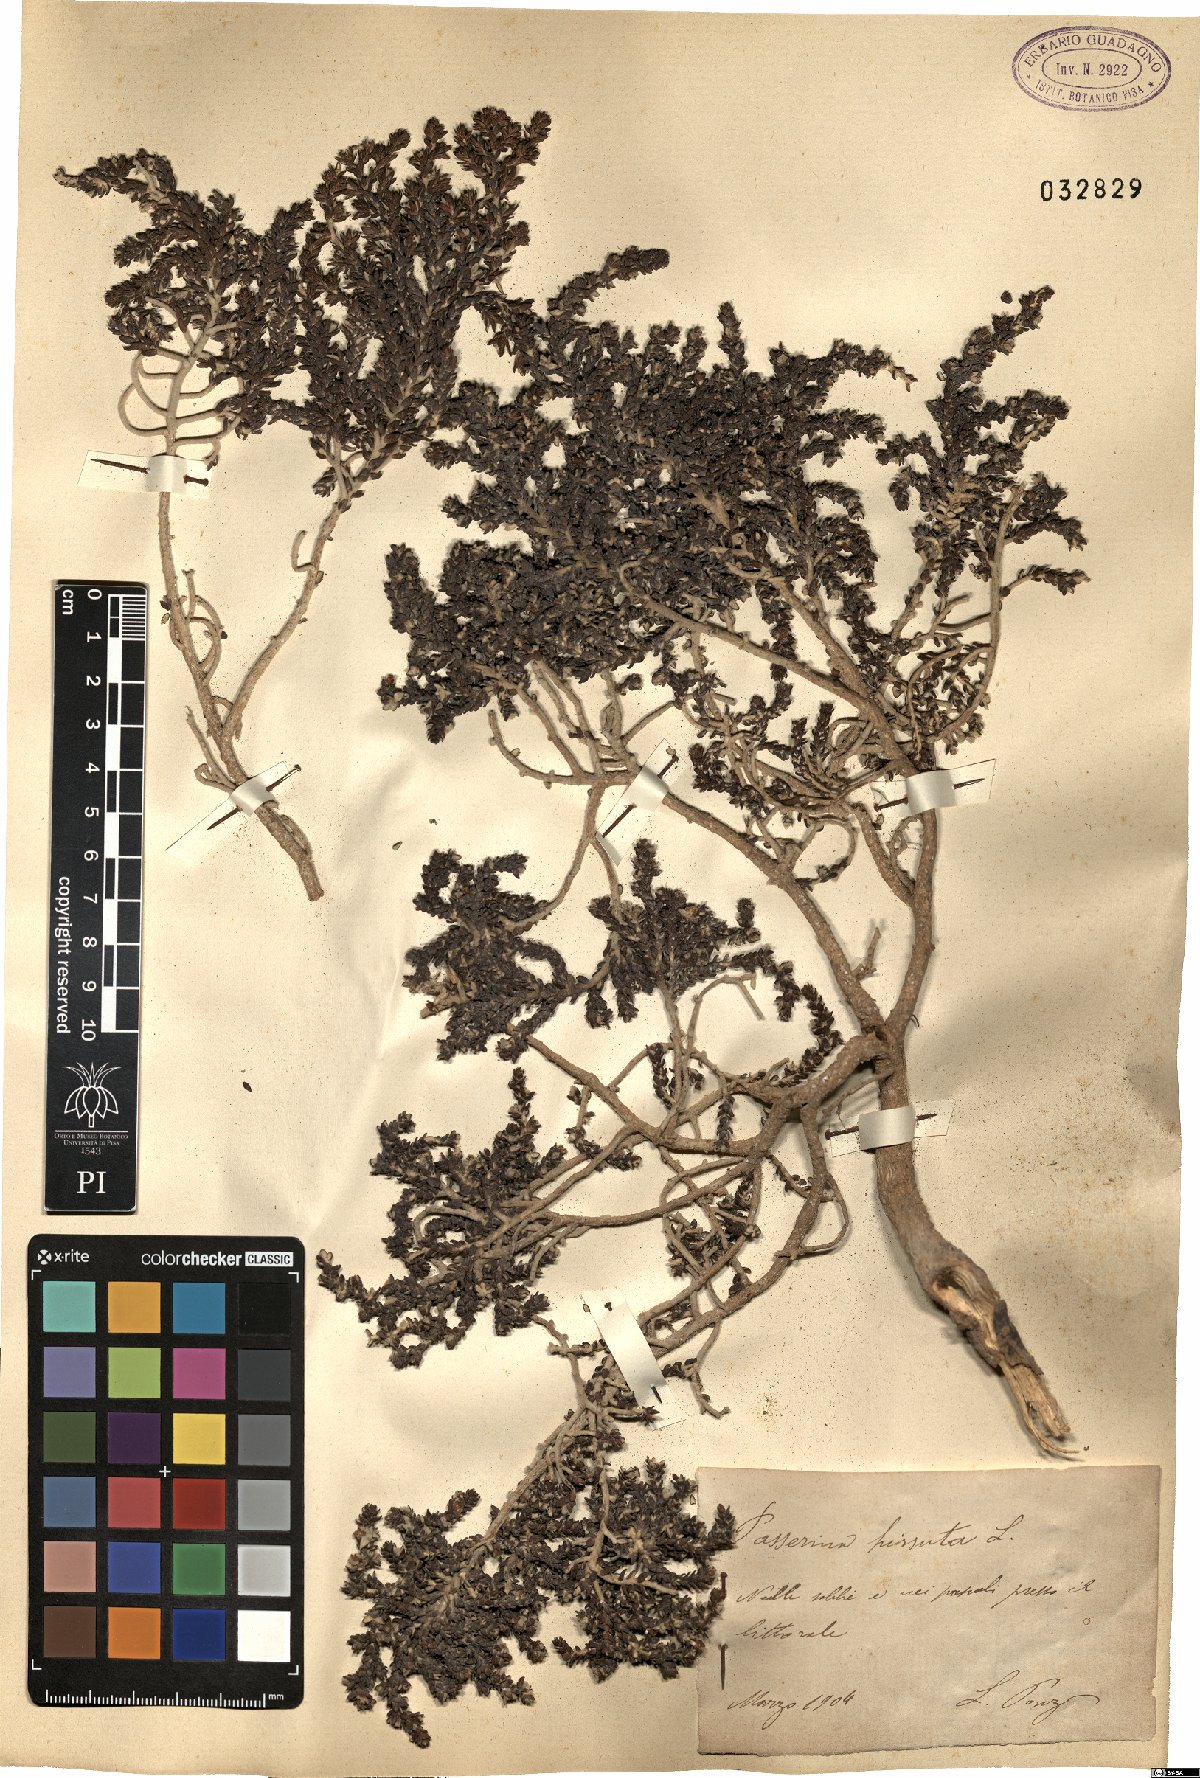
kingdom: Plantae
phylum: Tracheophyta
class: Magnoliopsida
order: Malvales
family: Thymelaeaceae
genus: Thymelaea
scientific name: Thymelaea hirsuta
